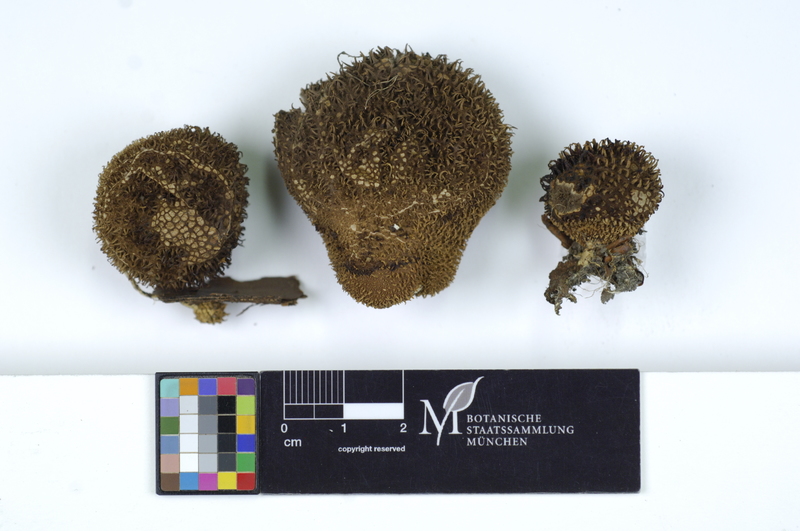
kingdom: Fungi
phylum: Basidiomycota
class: Agaricomycetes
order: Agaricales
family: Lycoperdaceae
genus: Lycoperdon
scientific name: Lycoperdon echinatum
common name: Hedgehog puffball
